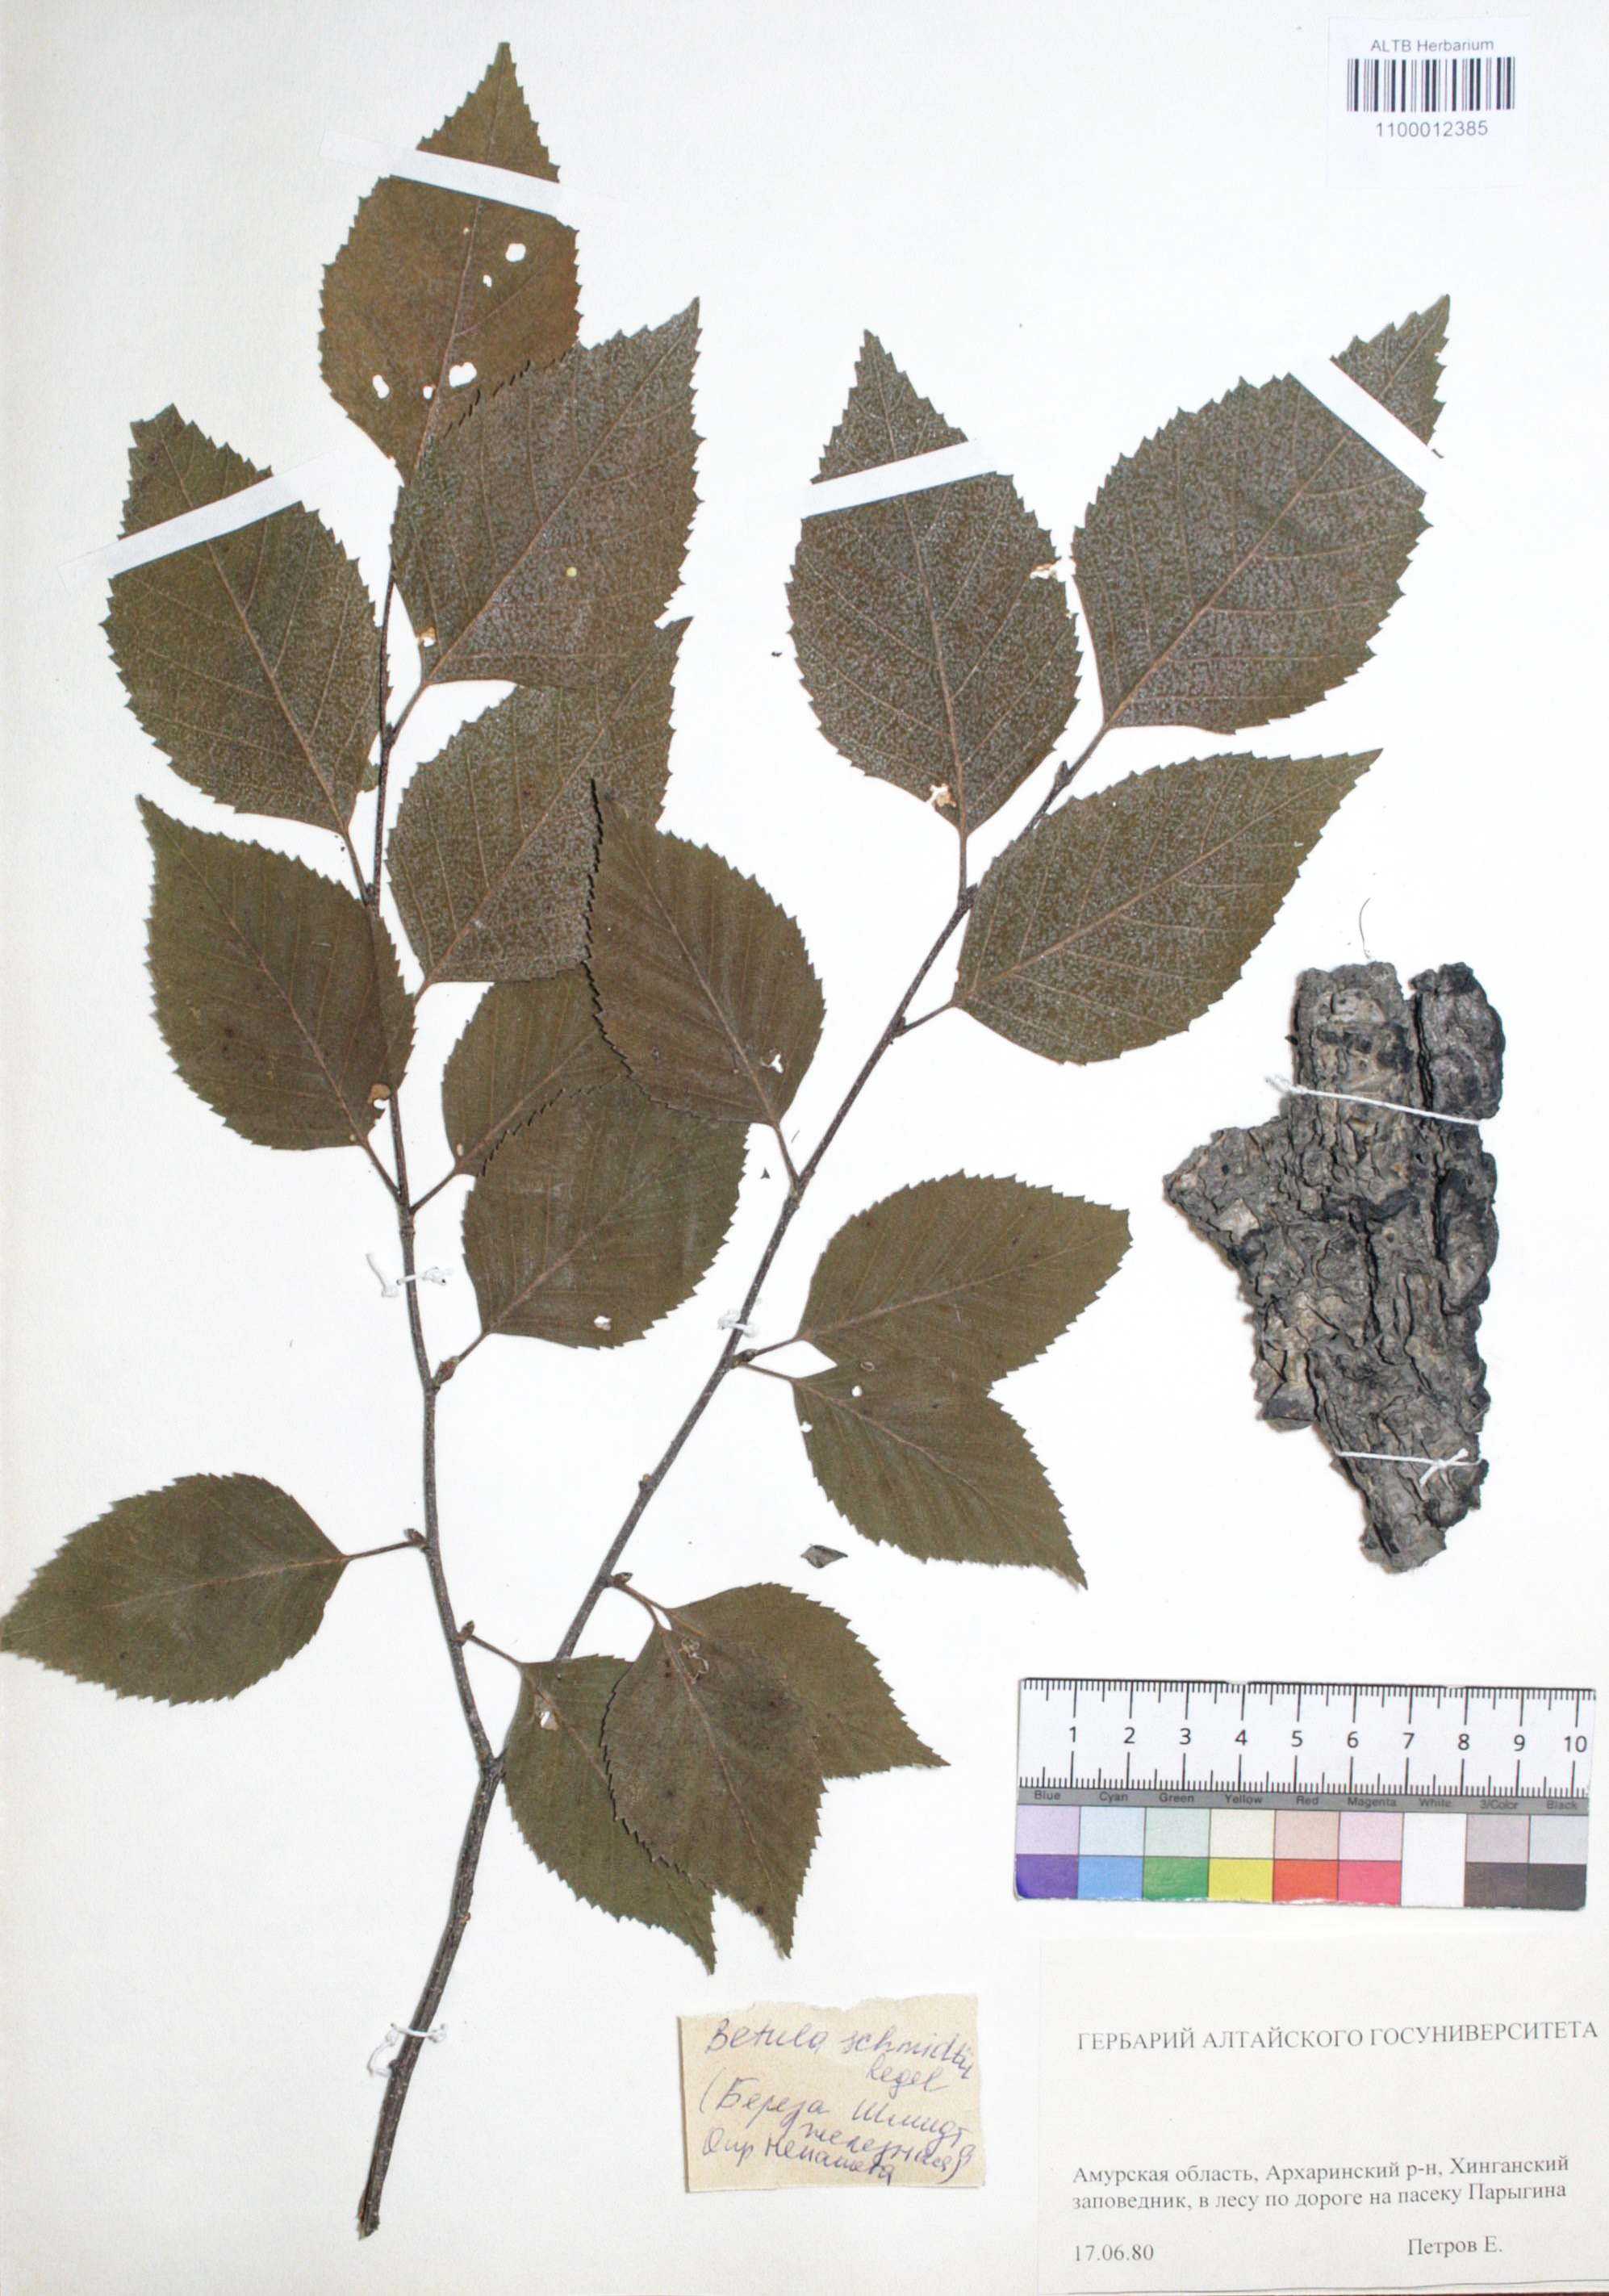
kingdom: Plantae
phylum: Tracheophyta
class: Magnoliopsida
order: Fagales
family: Betulaceae
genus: Betula
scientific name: Betula schmidtii
